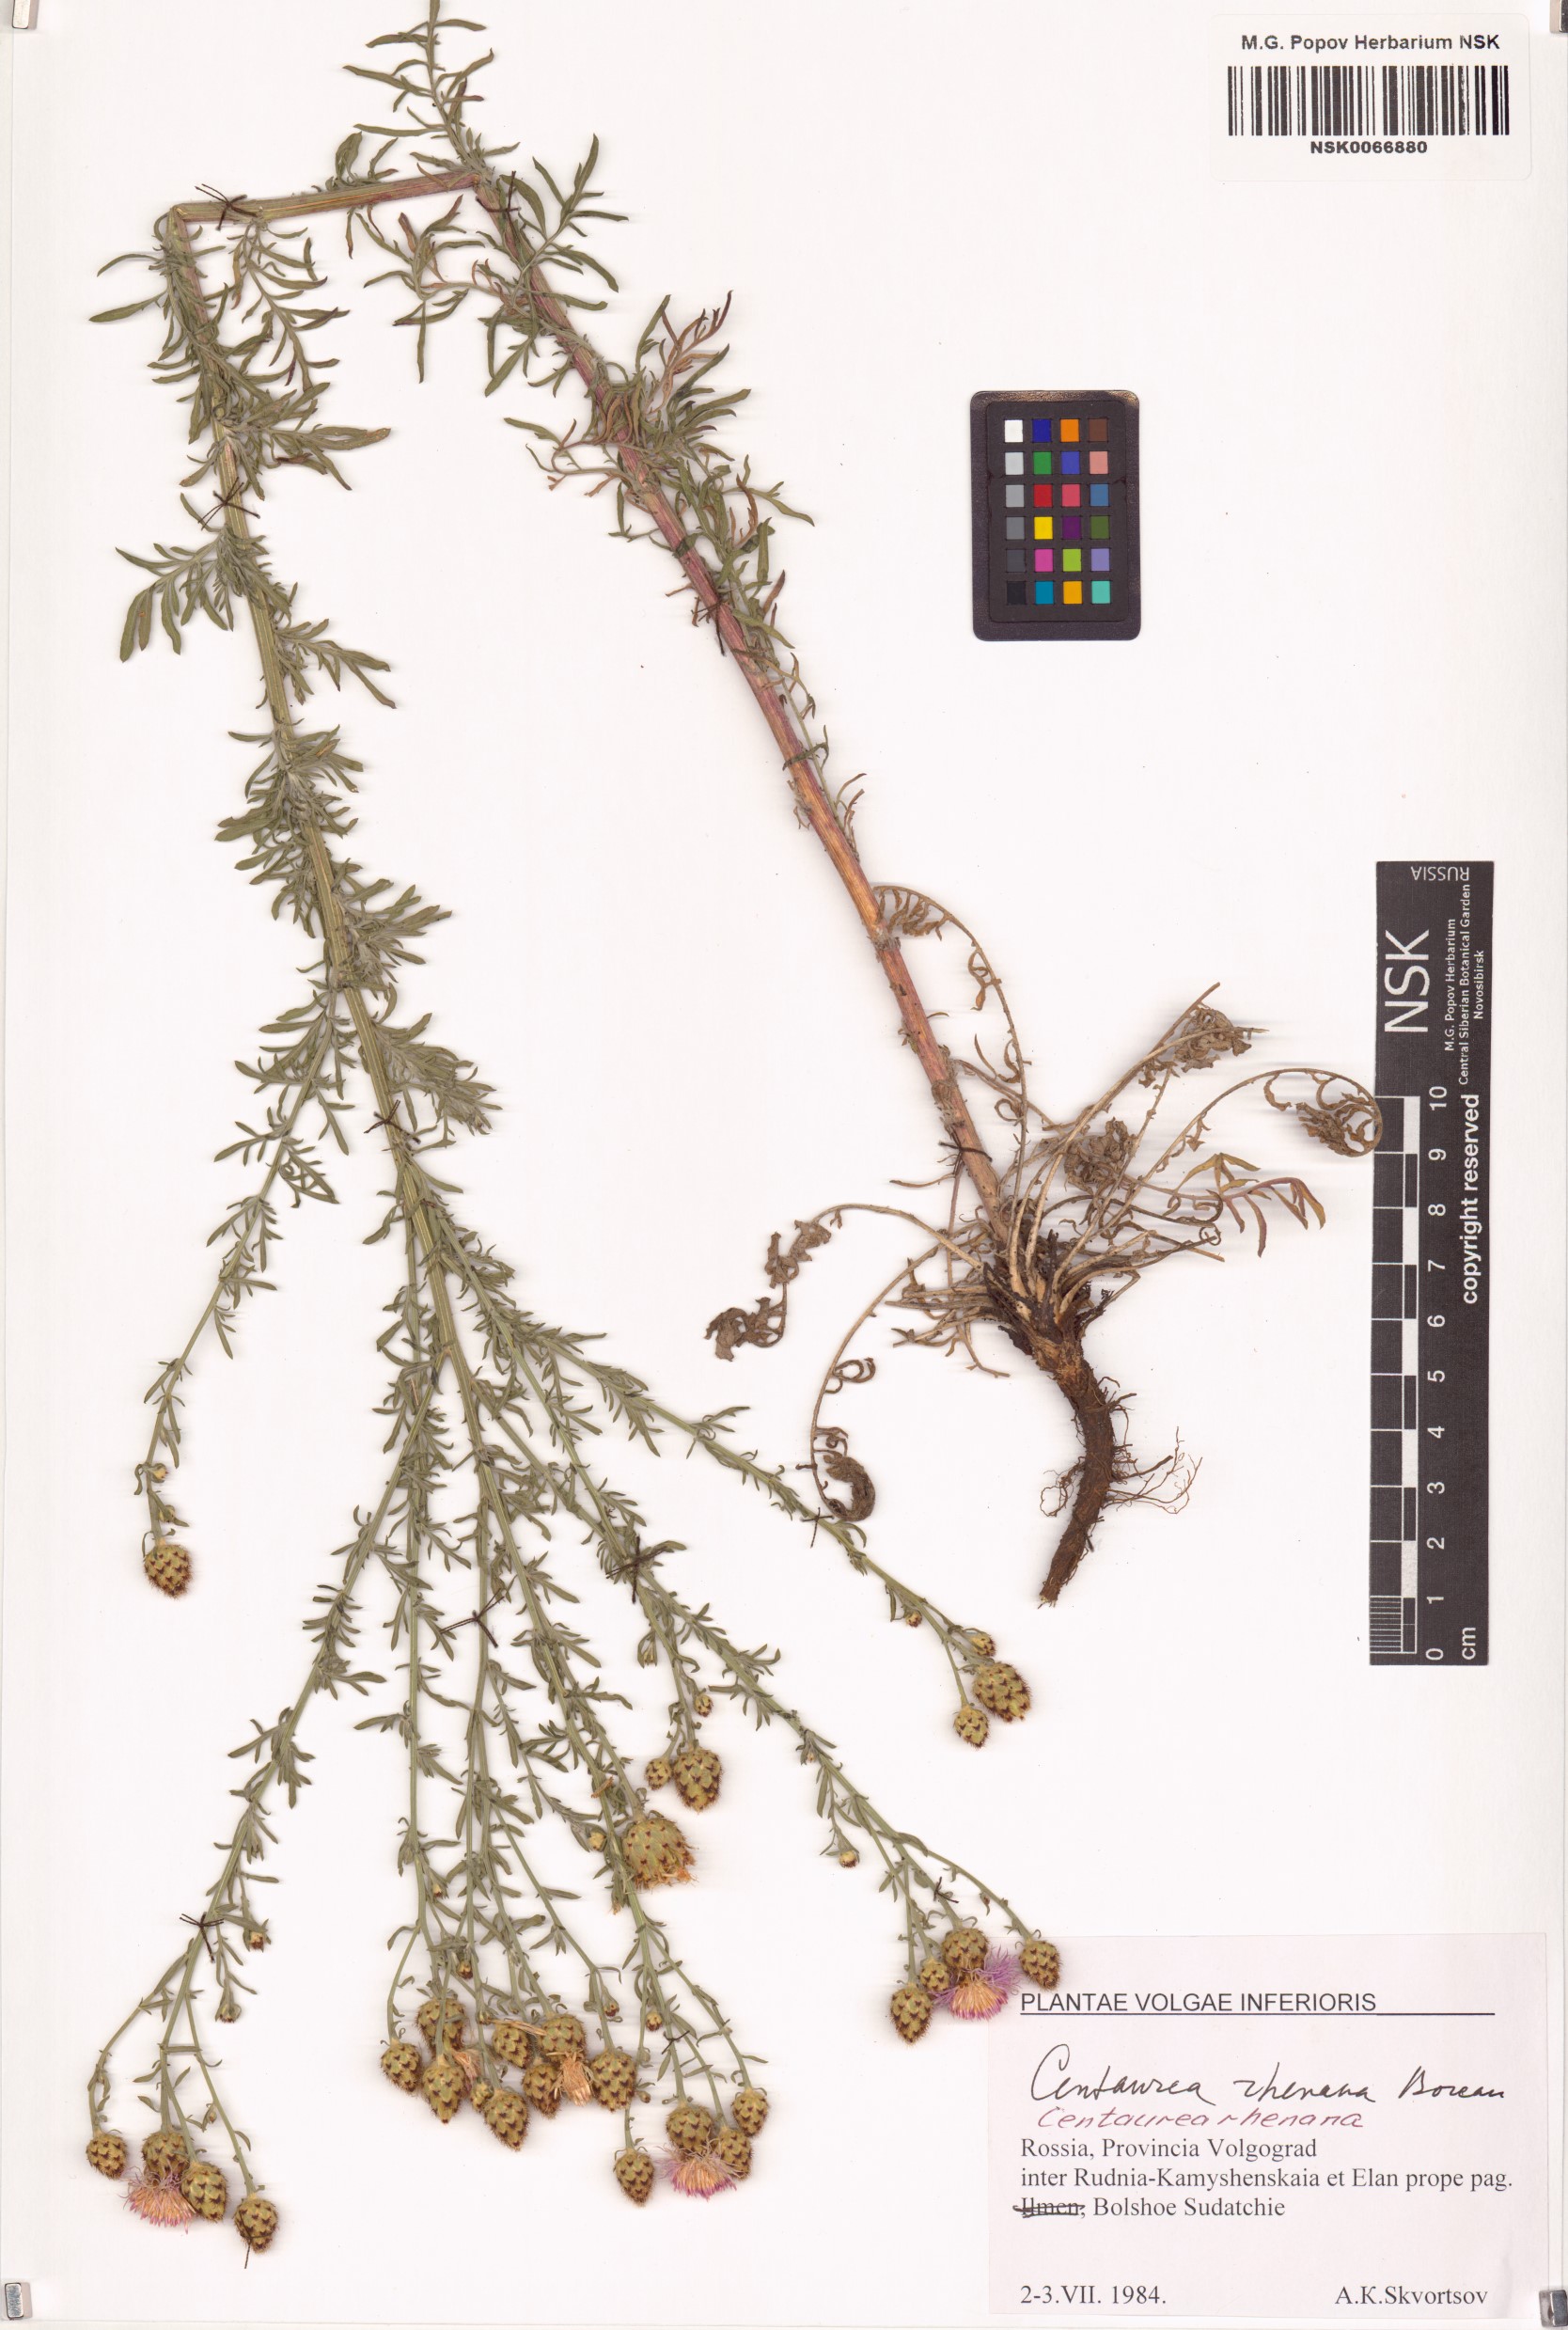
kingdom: Plantae
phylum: Tracheophyta
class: Magnoliopsida
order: Asterales
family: Asteraceae
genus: Centaurea
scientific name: Centaurea stoebe
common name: Spotted knapweed
